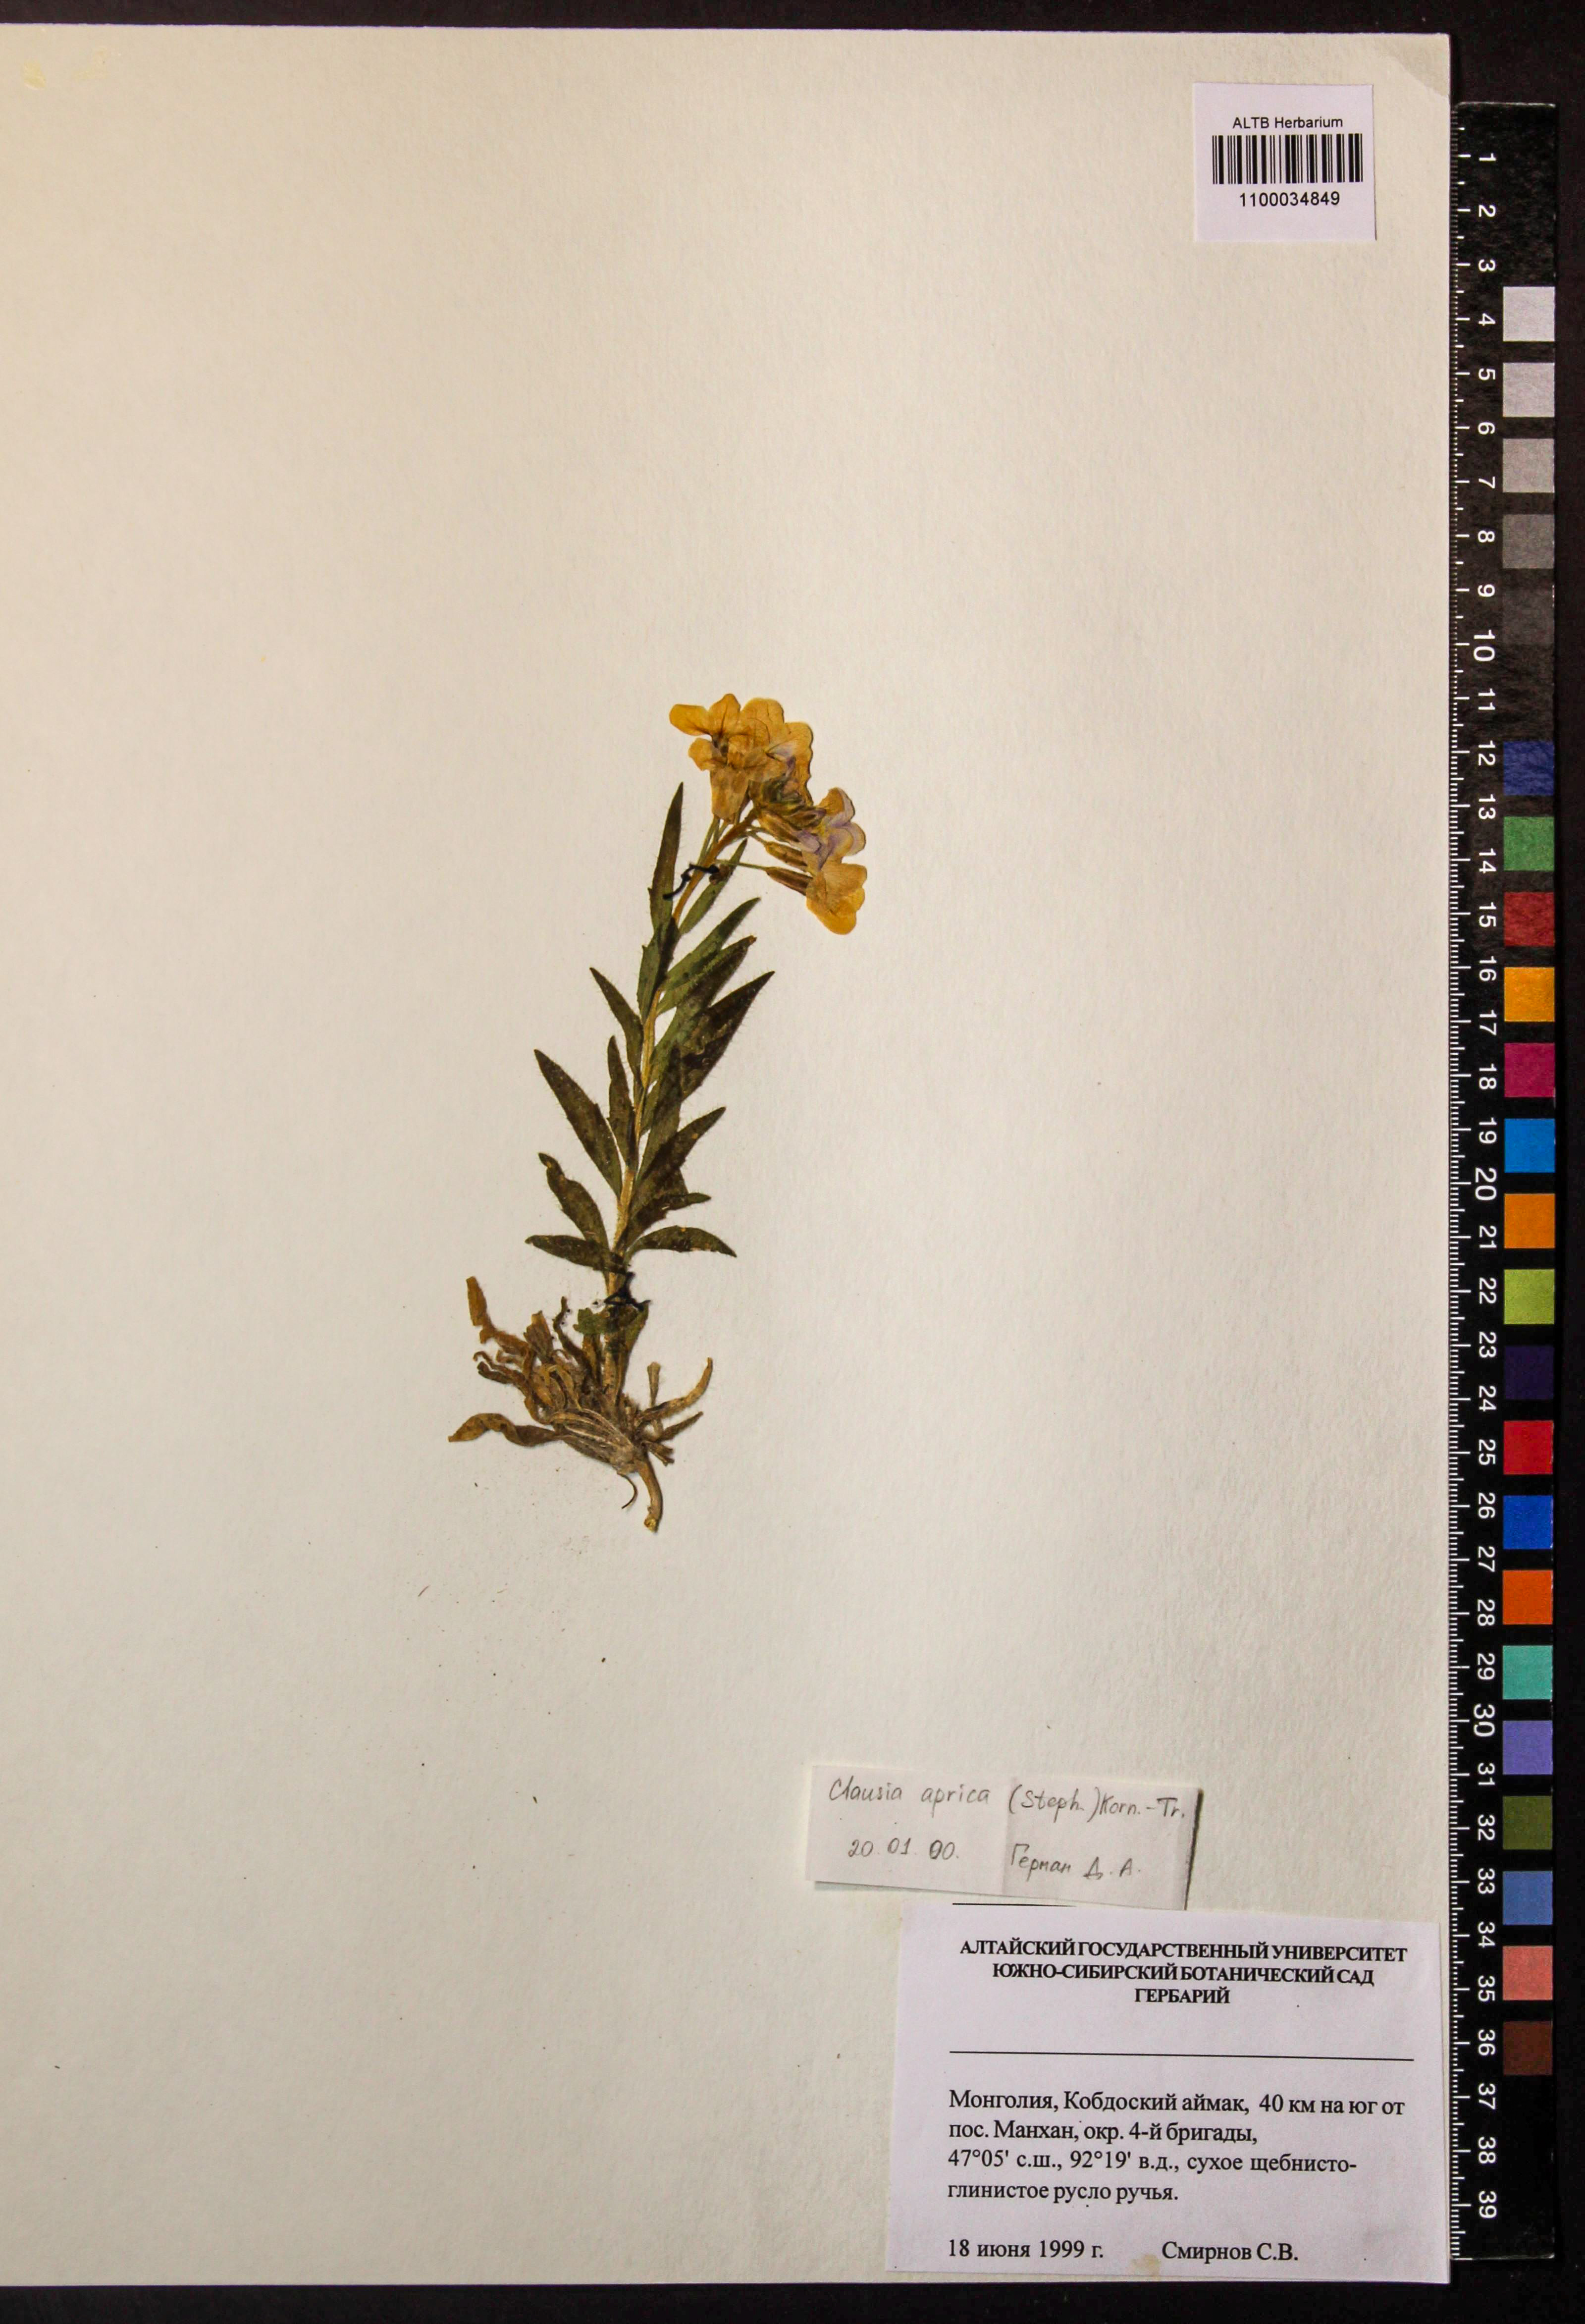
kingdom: Plantae
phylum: Tracheophyta
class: Magnoliopsida
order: Brassicales
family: Brassicaceae
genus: Clausia
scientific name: Clausia aprica
